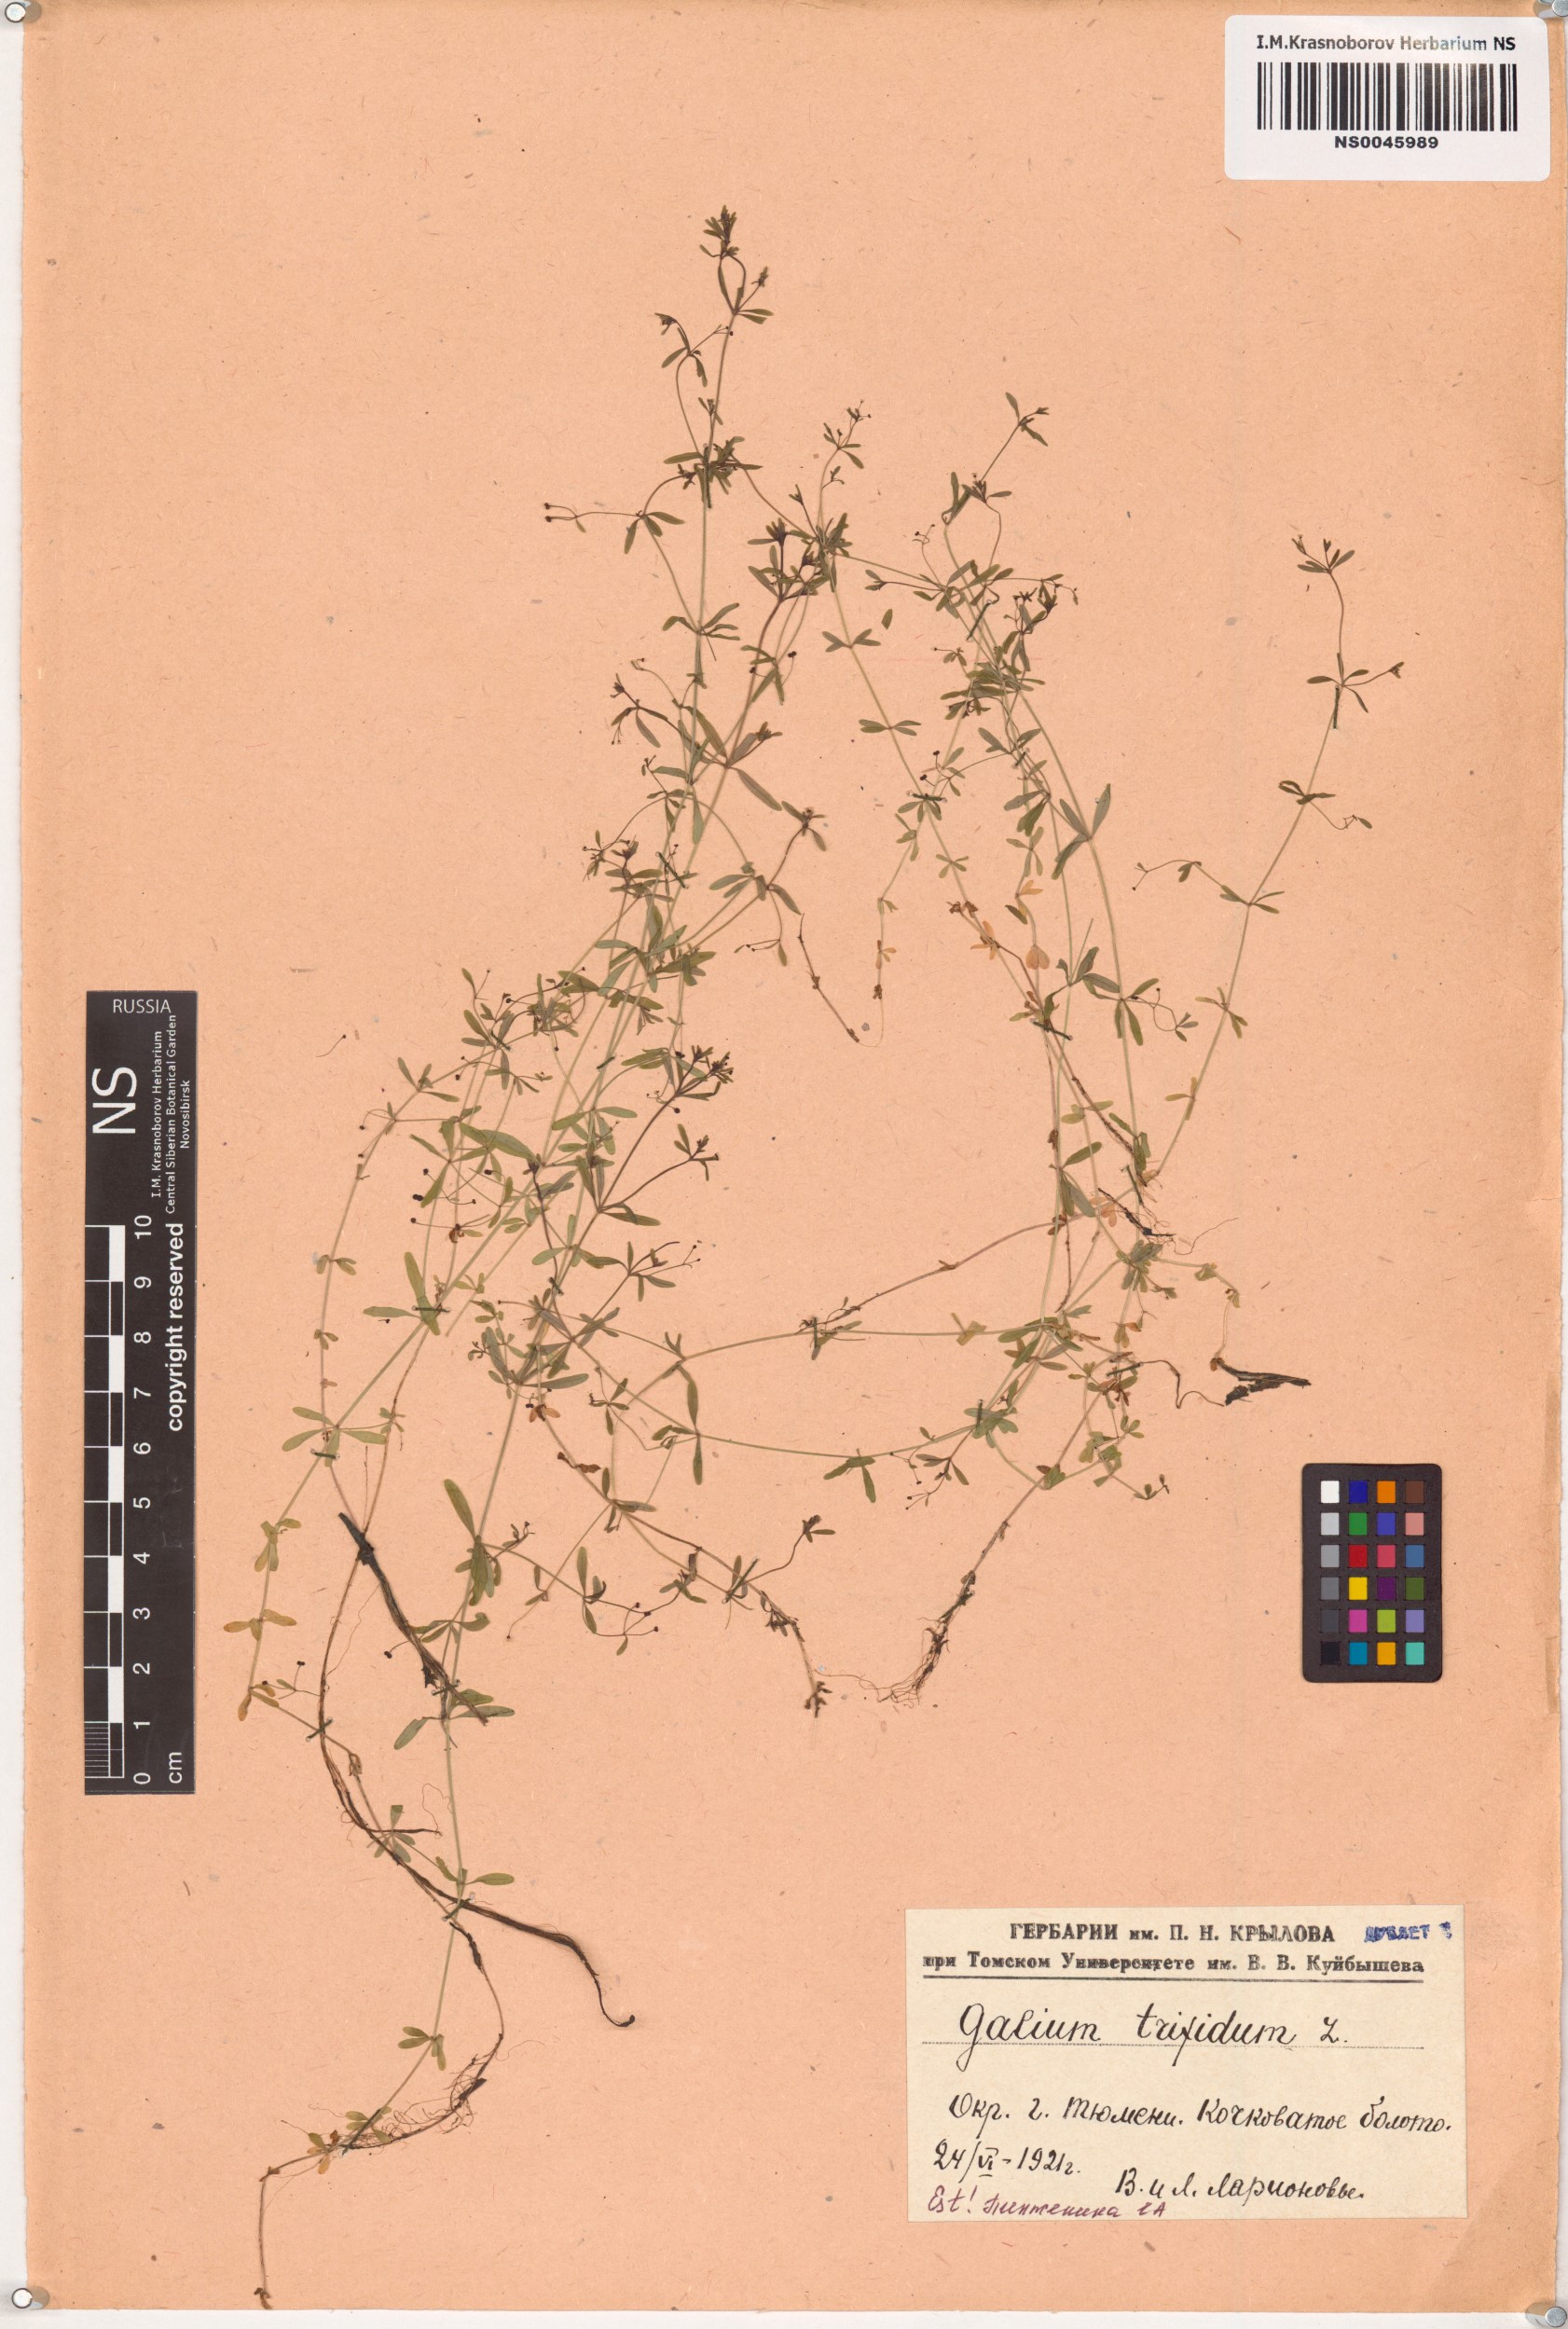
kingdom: Plantae
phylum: Tracheophyta
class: Magnoliopsida
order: Gentianales
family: Rubiaceae
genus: Galium
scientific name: Galium trifidum
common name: Small bedstraw
